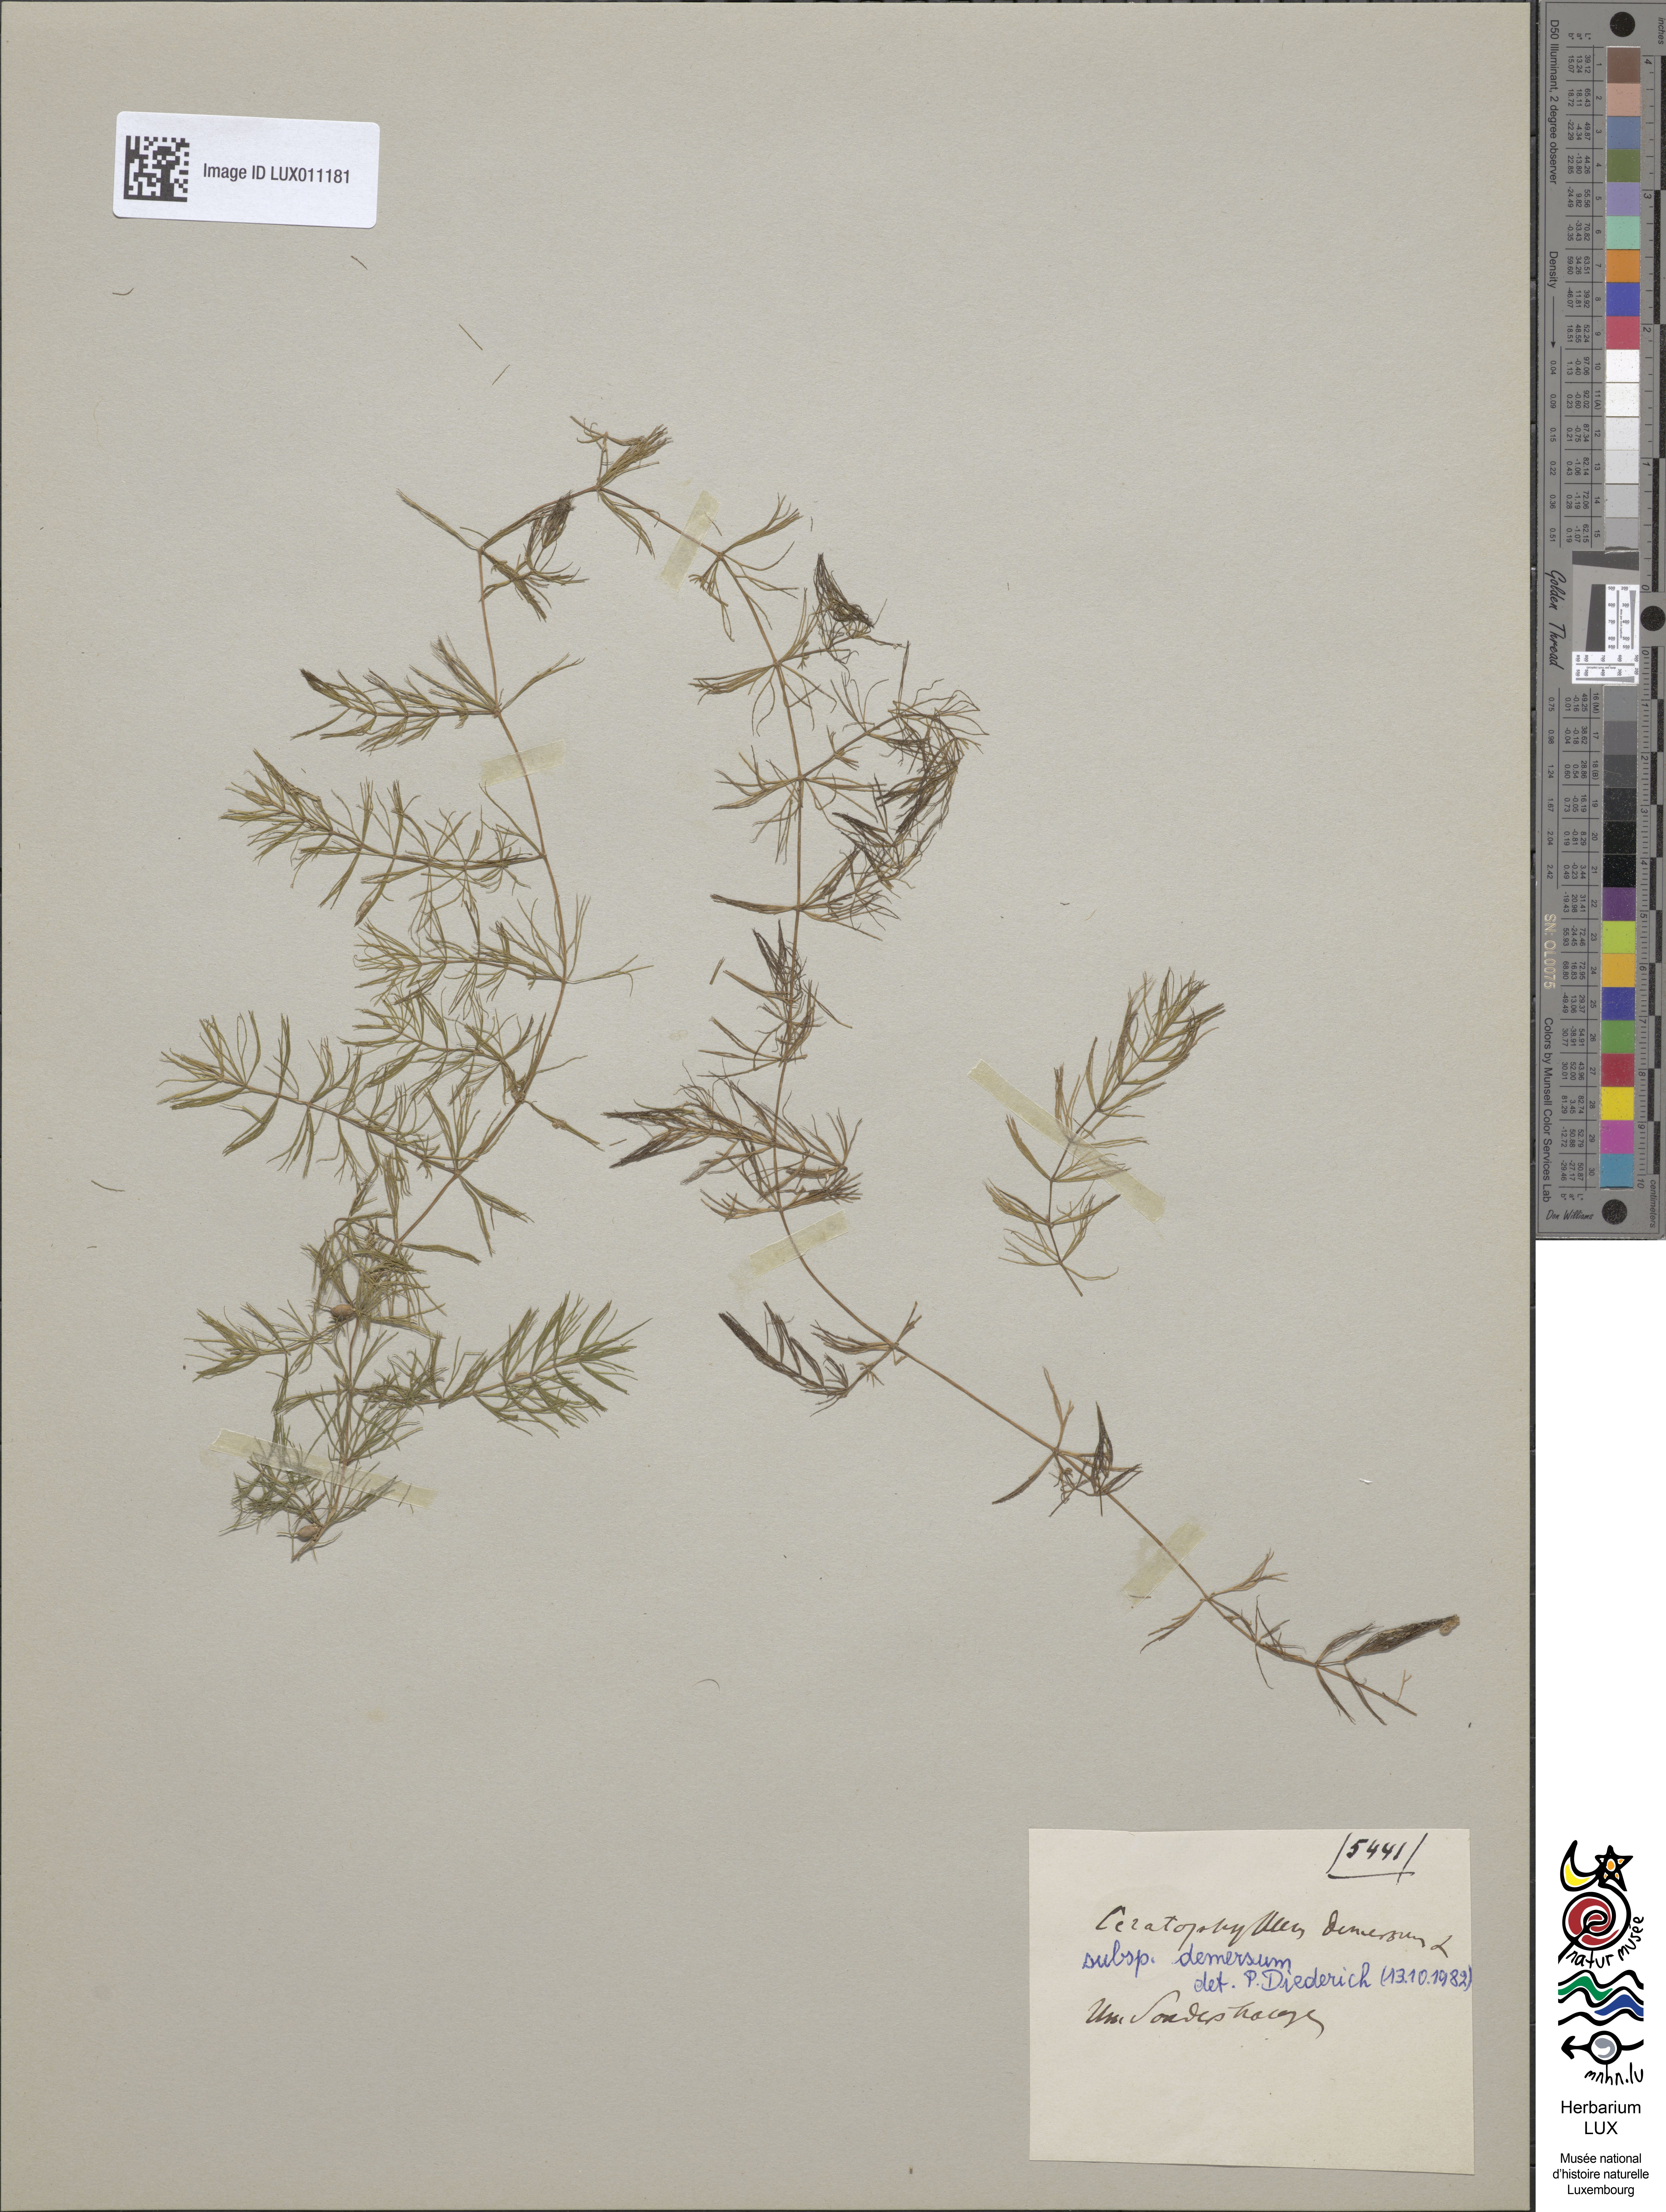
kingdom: Plantae
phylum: Tracheophyta
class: Magnoliopsida
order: Ceratophyllales
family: Ceratophyllaceae
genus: Ceratophyllum
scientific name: Ceratophyllum demersum
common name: Rigid hornwort
